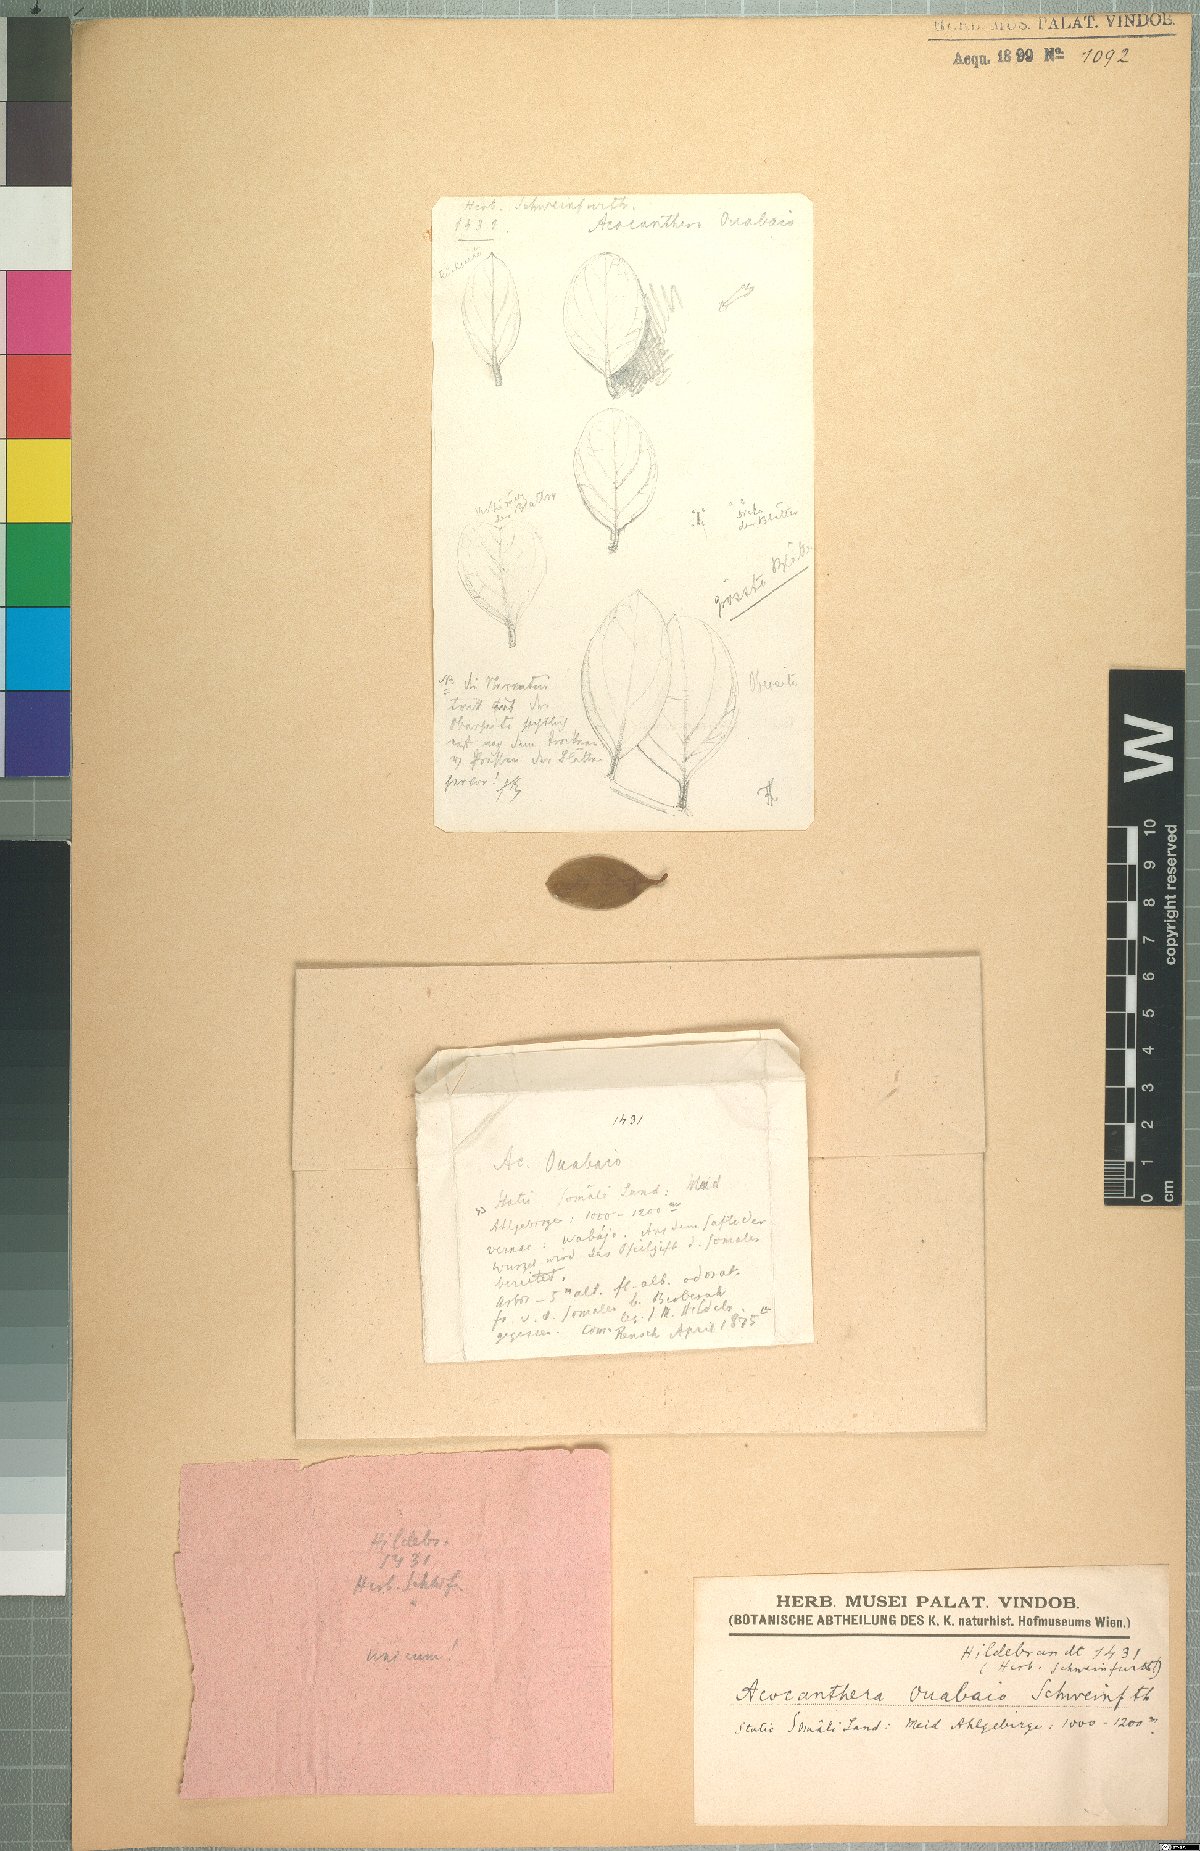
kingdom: Plantae
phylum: Tracheophyta
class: Magnoliopsida
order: Gentianales
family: Apocynaceae
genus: Acokanthera
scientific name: Acokanthera schimperi
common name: Arrow-poison-tree
